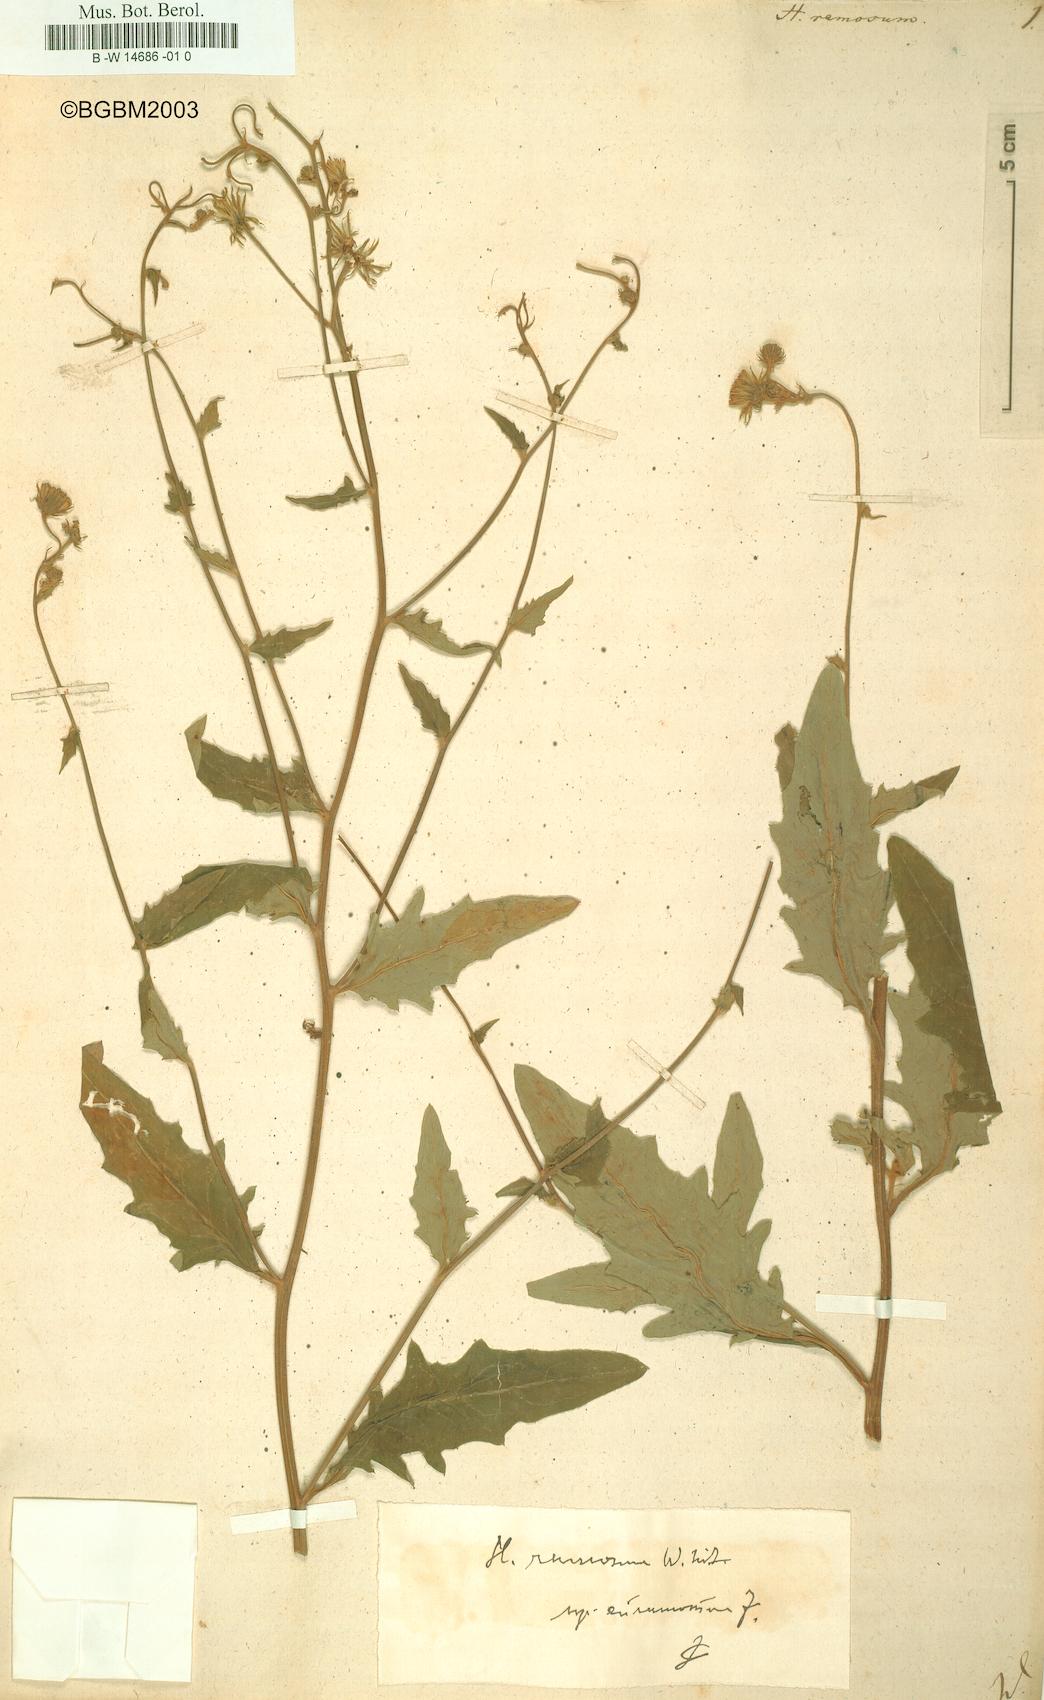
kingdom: Plantae
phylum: Tracheophyta
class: Magnoliopsida
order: Asterales
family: Asteraceae
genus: Hieracium
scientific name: Hieracium ramosum
